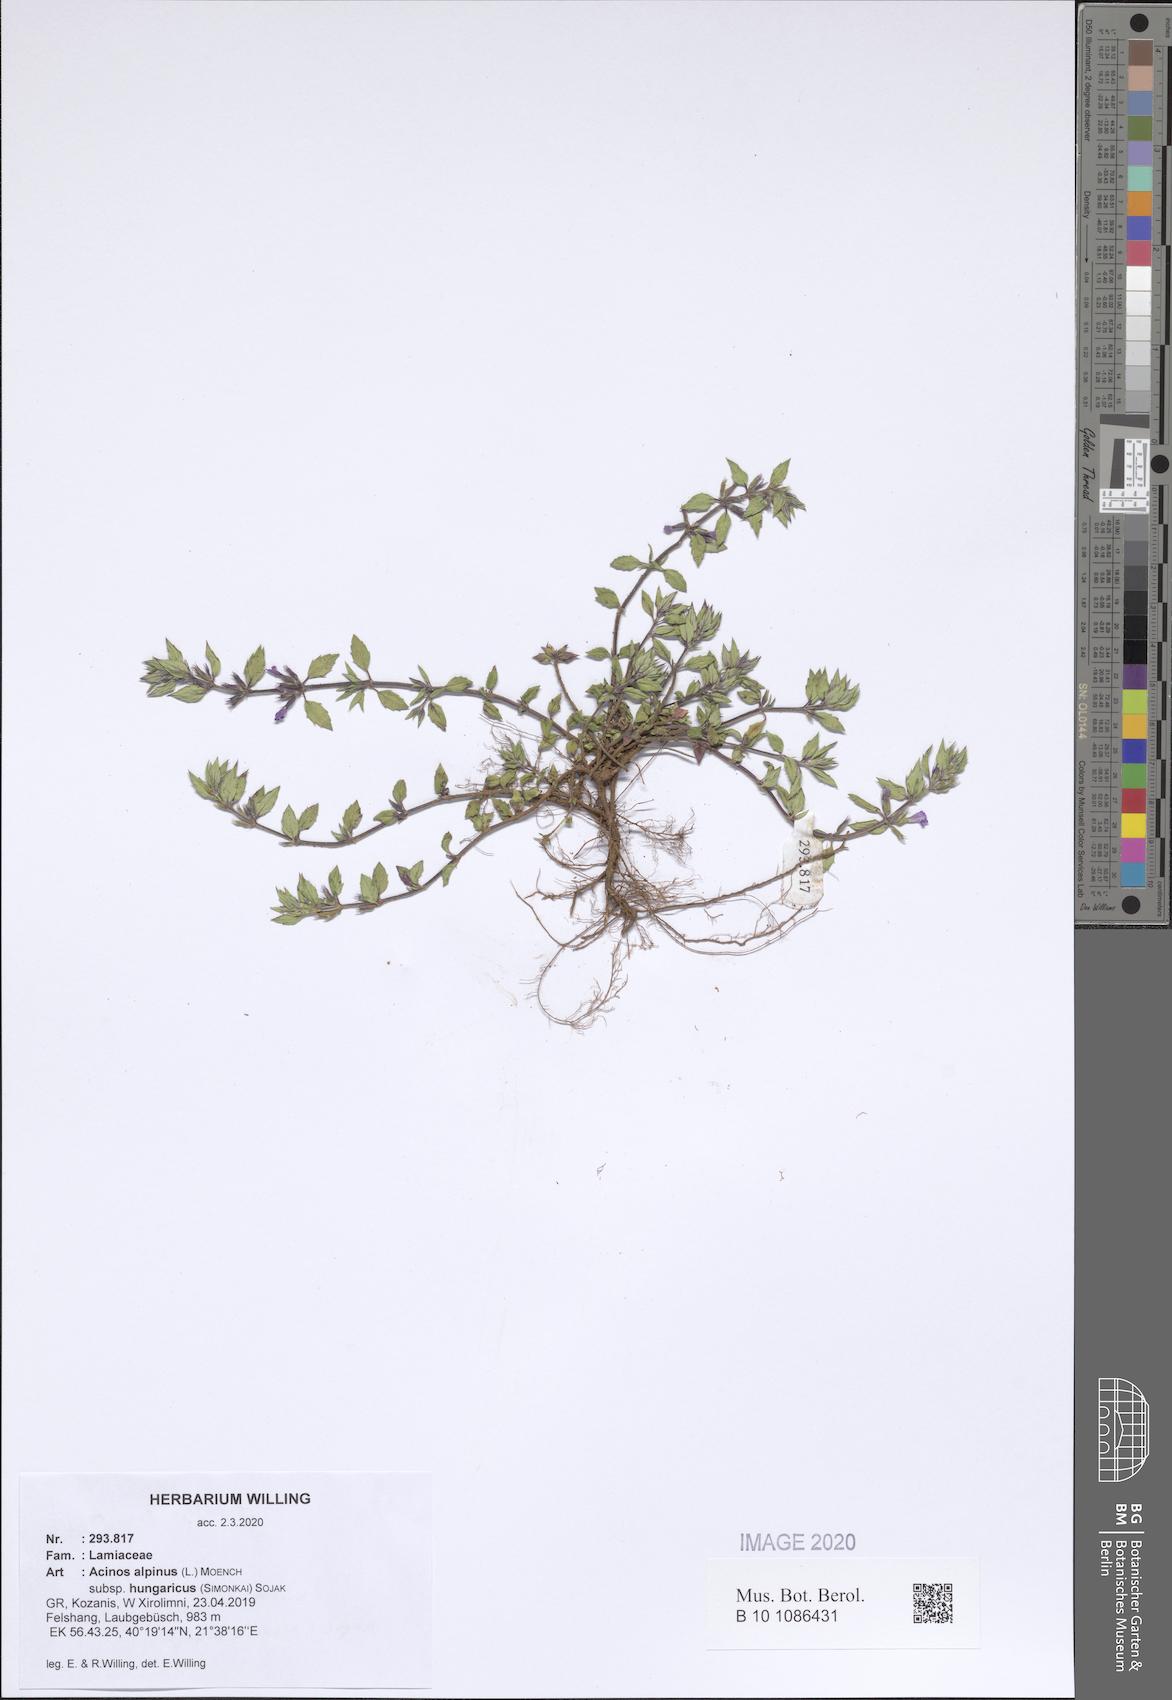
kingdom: Plantae
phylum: Tracheophyta
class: Magnoliopsida
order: Lamiales
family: Lamiaceae
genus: Clinopodium
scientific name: Clinopodium alpinum
